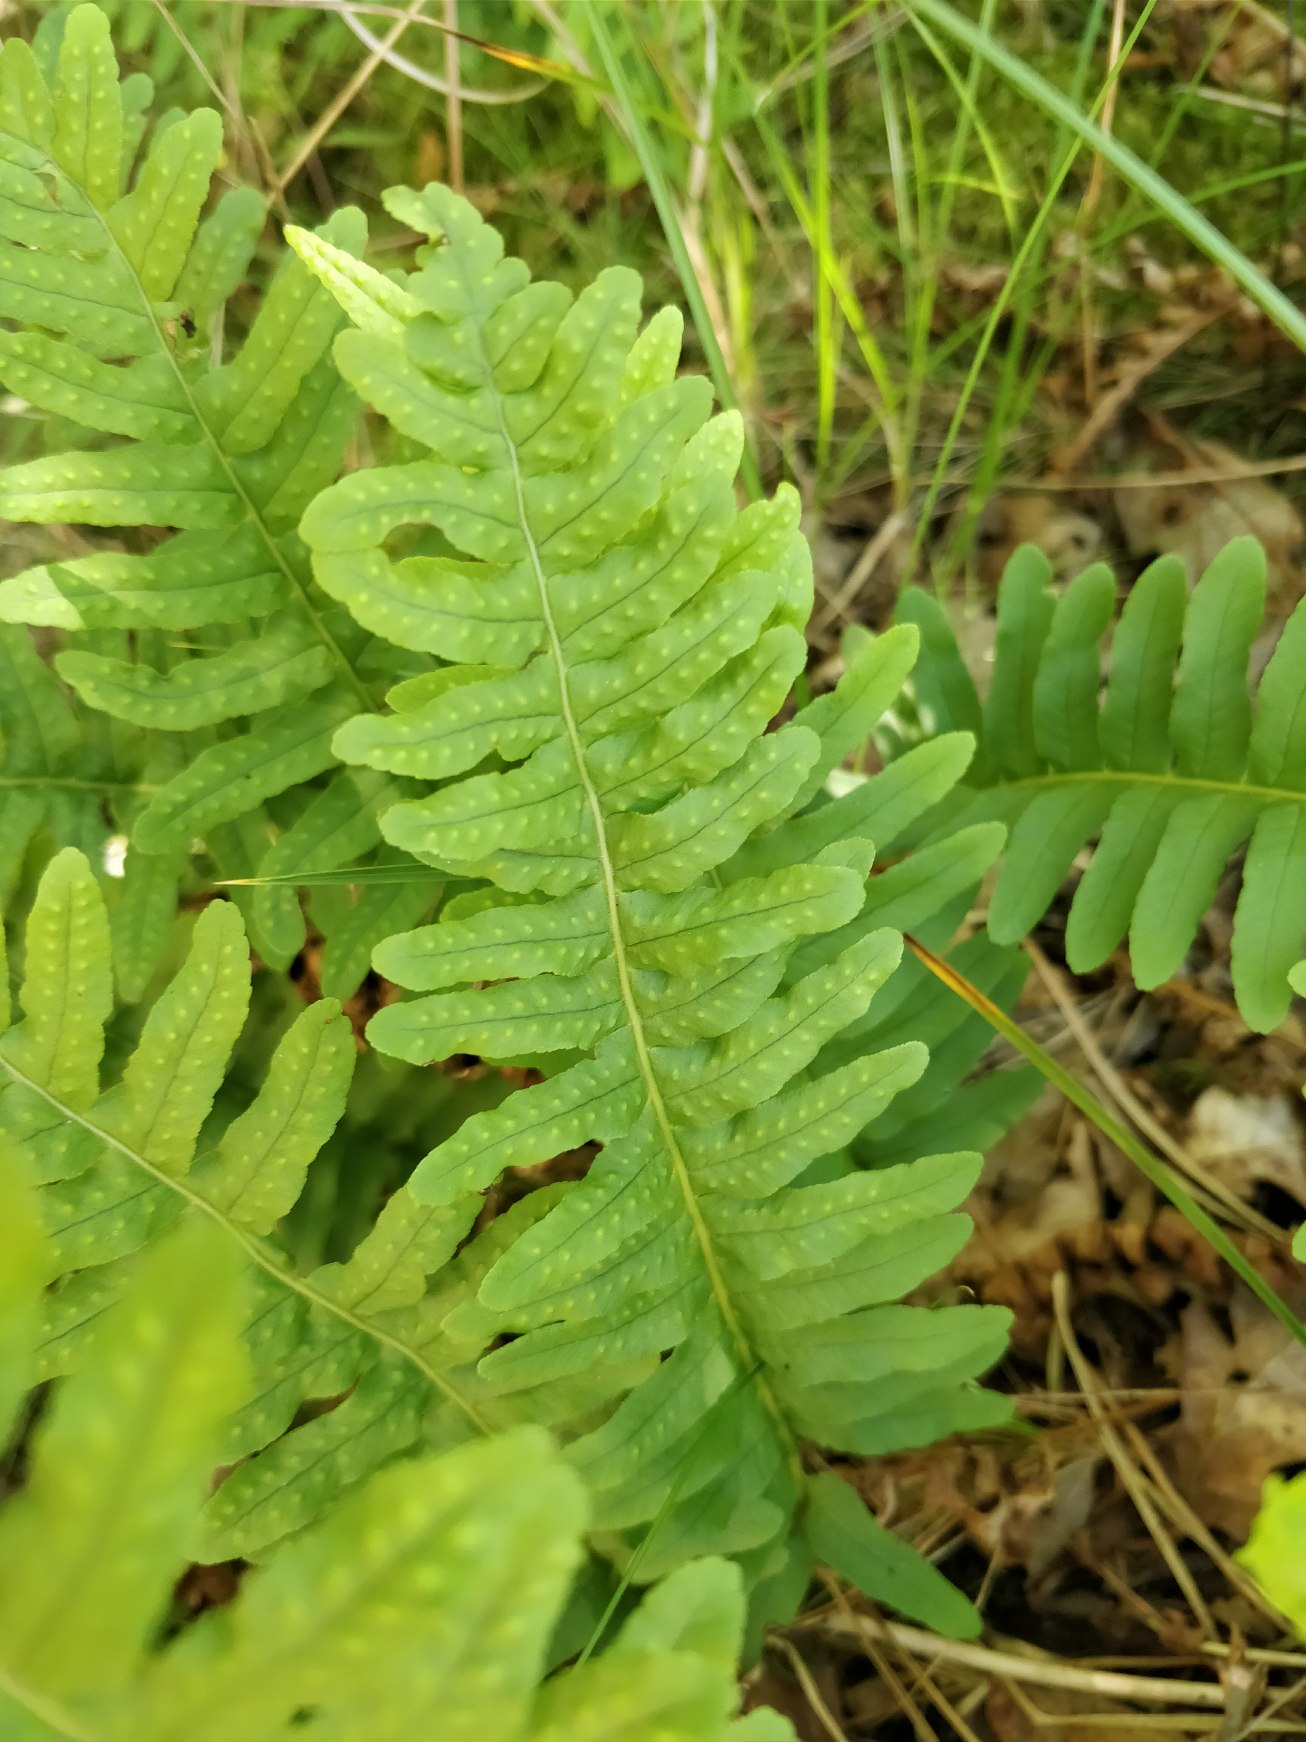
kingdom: Plantae
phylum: Tracheophyta
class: Polypodiopsida
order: Polypodiales
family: Polypodiaceae
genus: Polypodium
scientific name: Polypodium vulgare
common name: Almindelig engelsød
